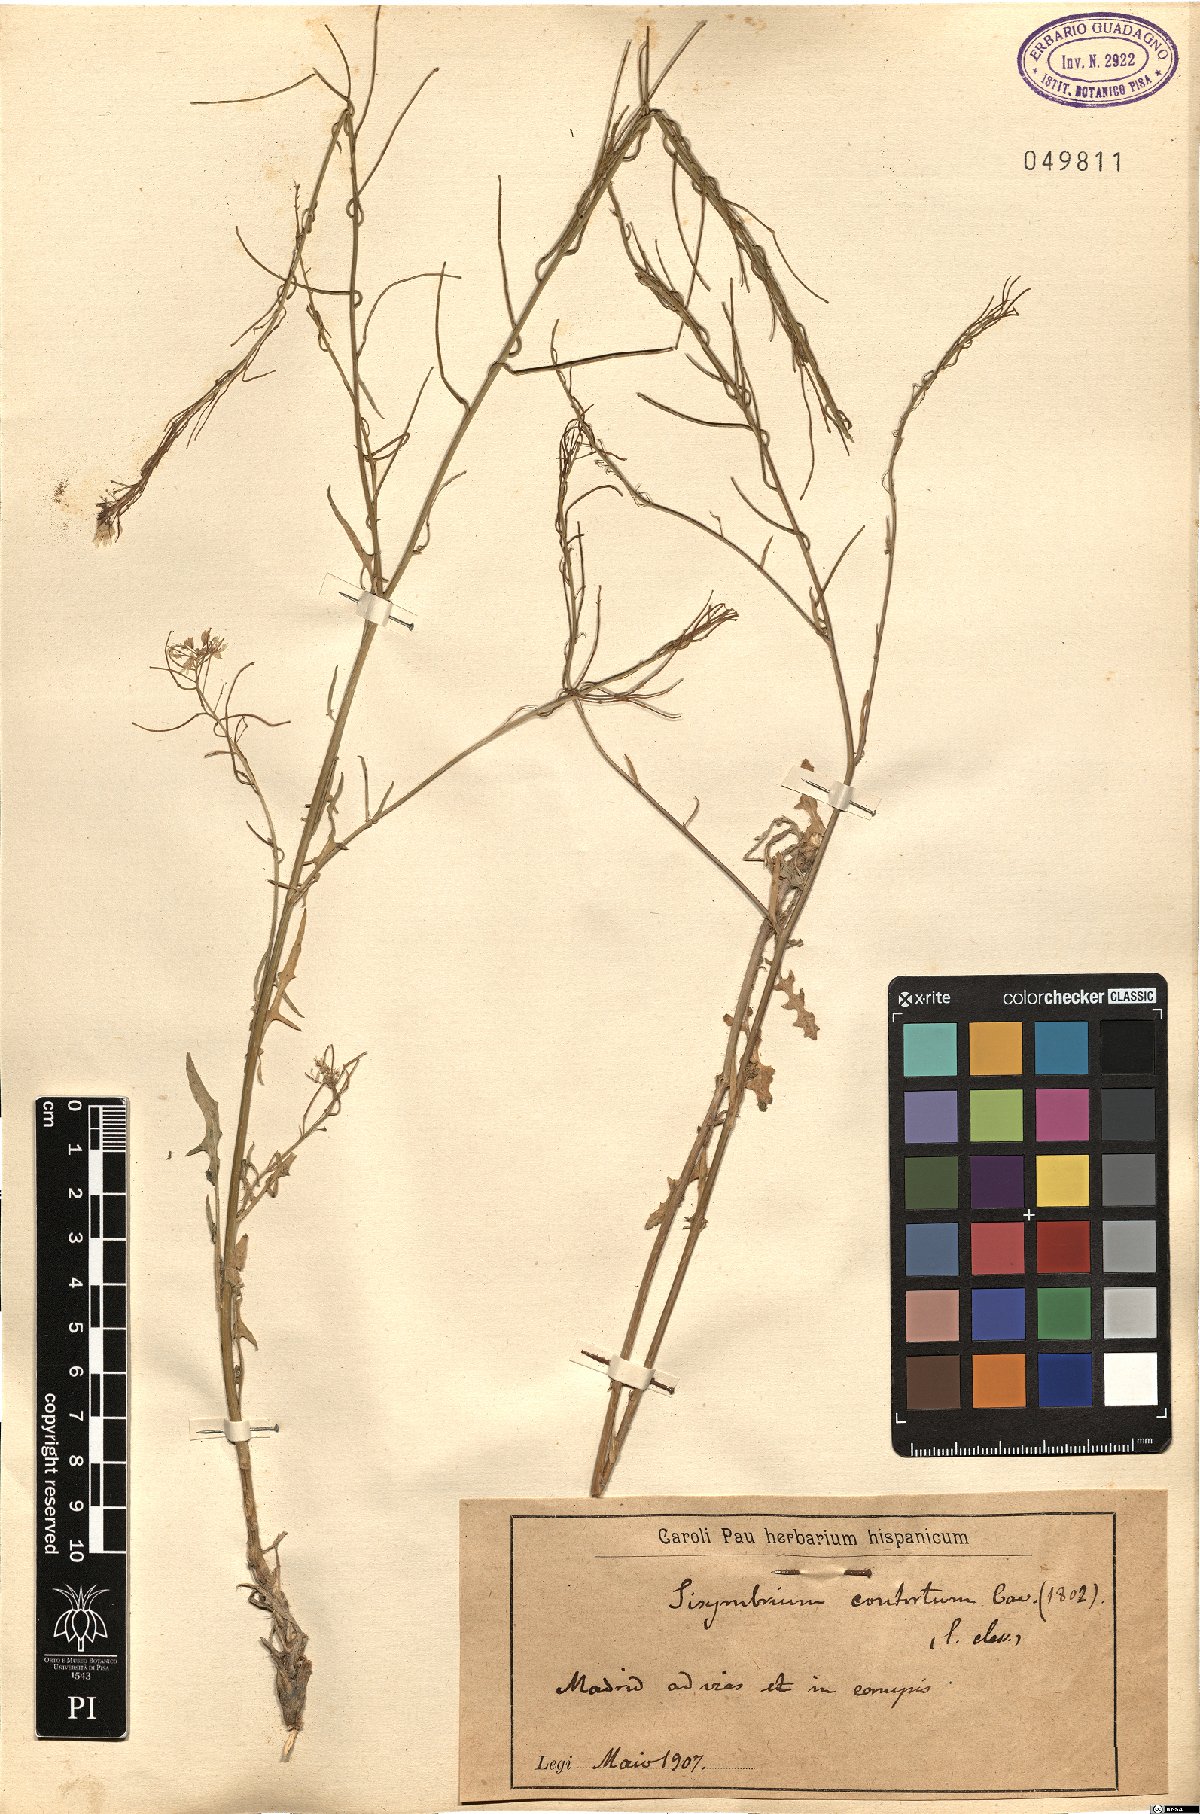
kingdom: Plantae
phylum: Tracheophyta
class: Magnoliopsida
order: Brassicales
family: Brassicaceae
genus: Sisymbrium
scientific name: Sisymbrium confertum
